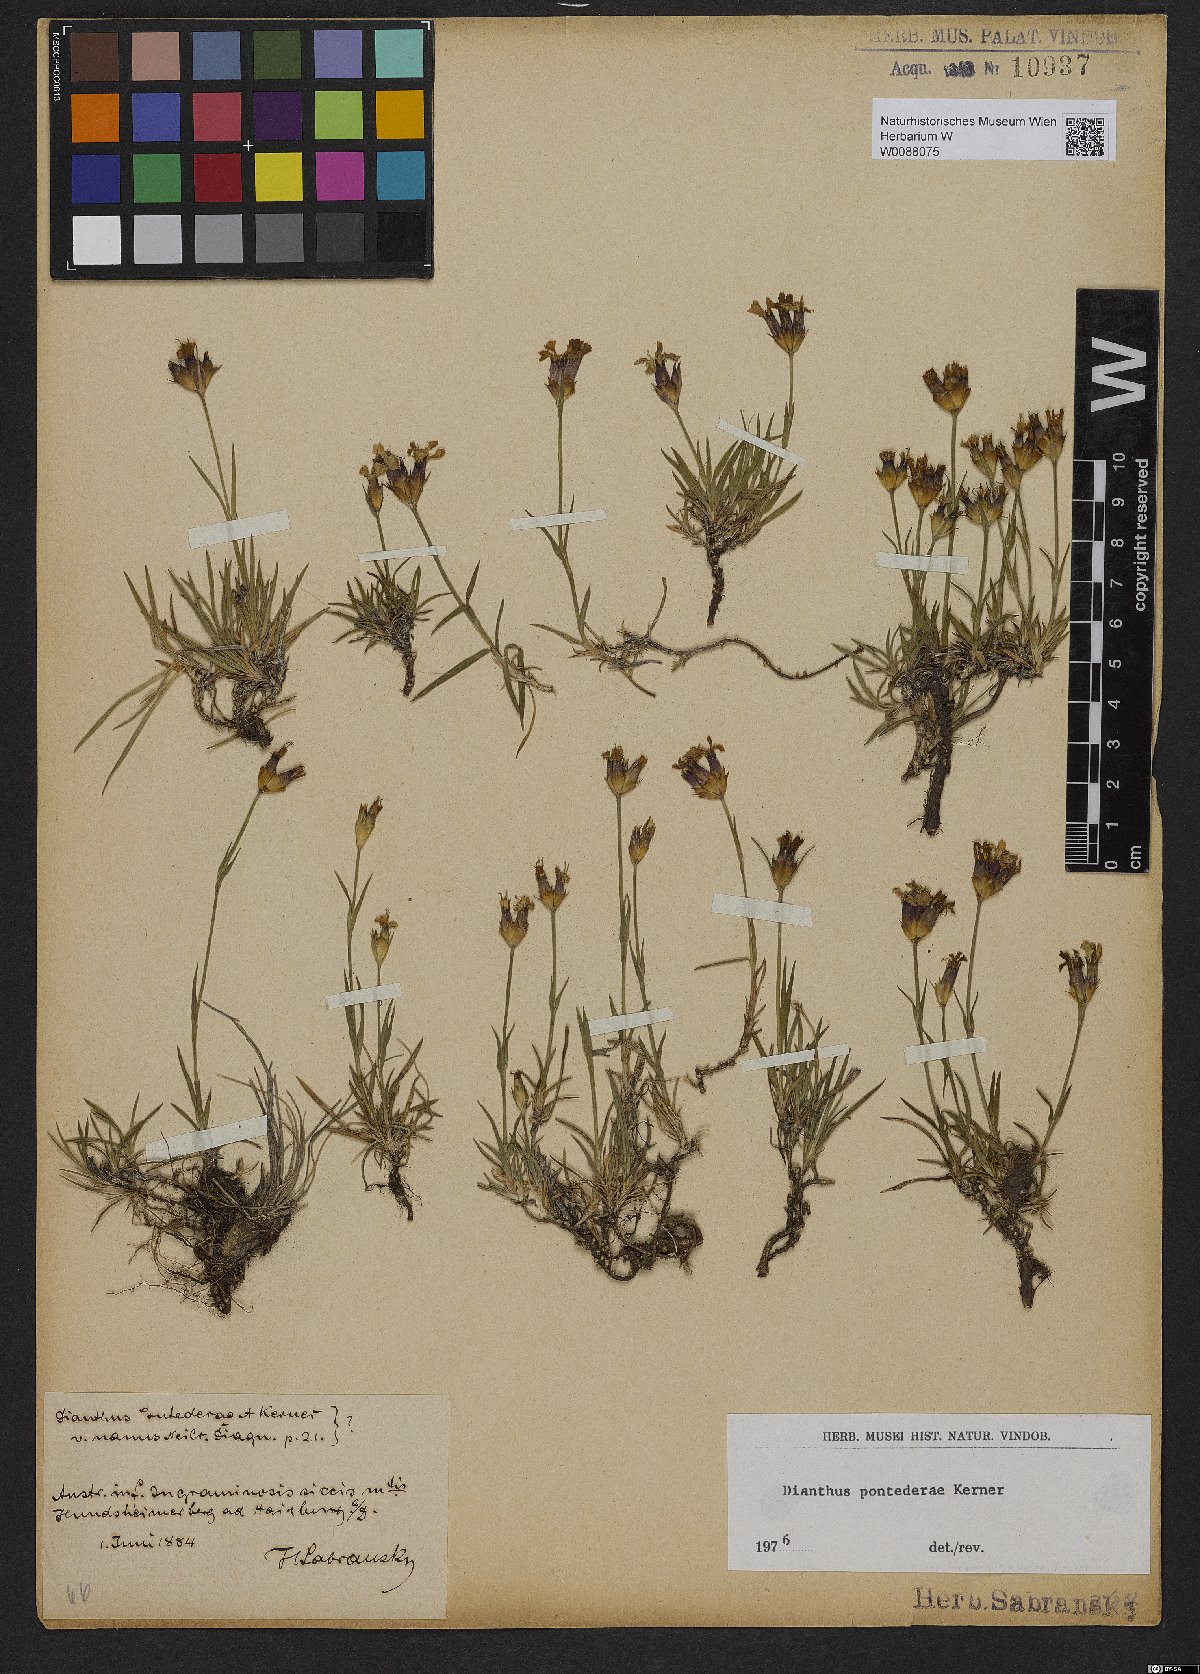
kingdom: Plantae
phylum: Tracheophyta
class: Magnoliopsida
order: Caryophyllales
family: Caryophyllaceae
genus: Dianthus
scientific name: Dianthus pontederae
